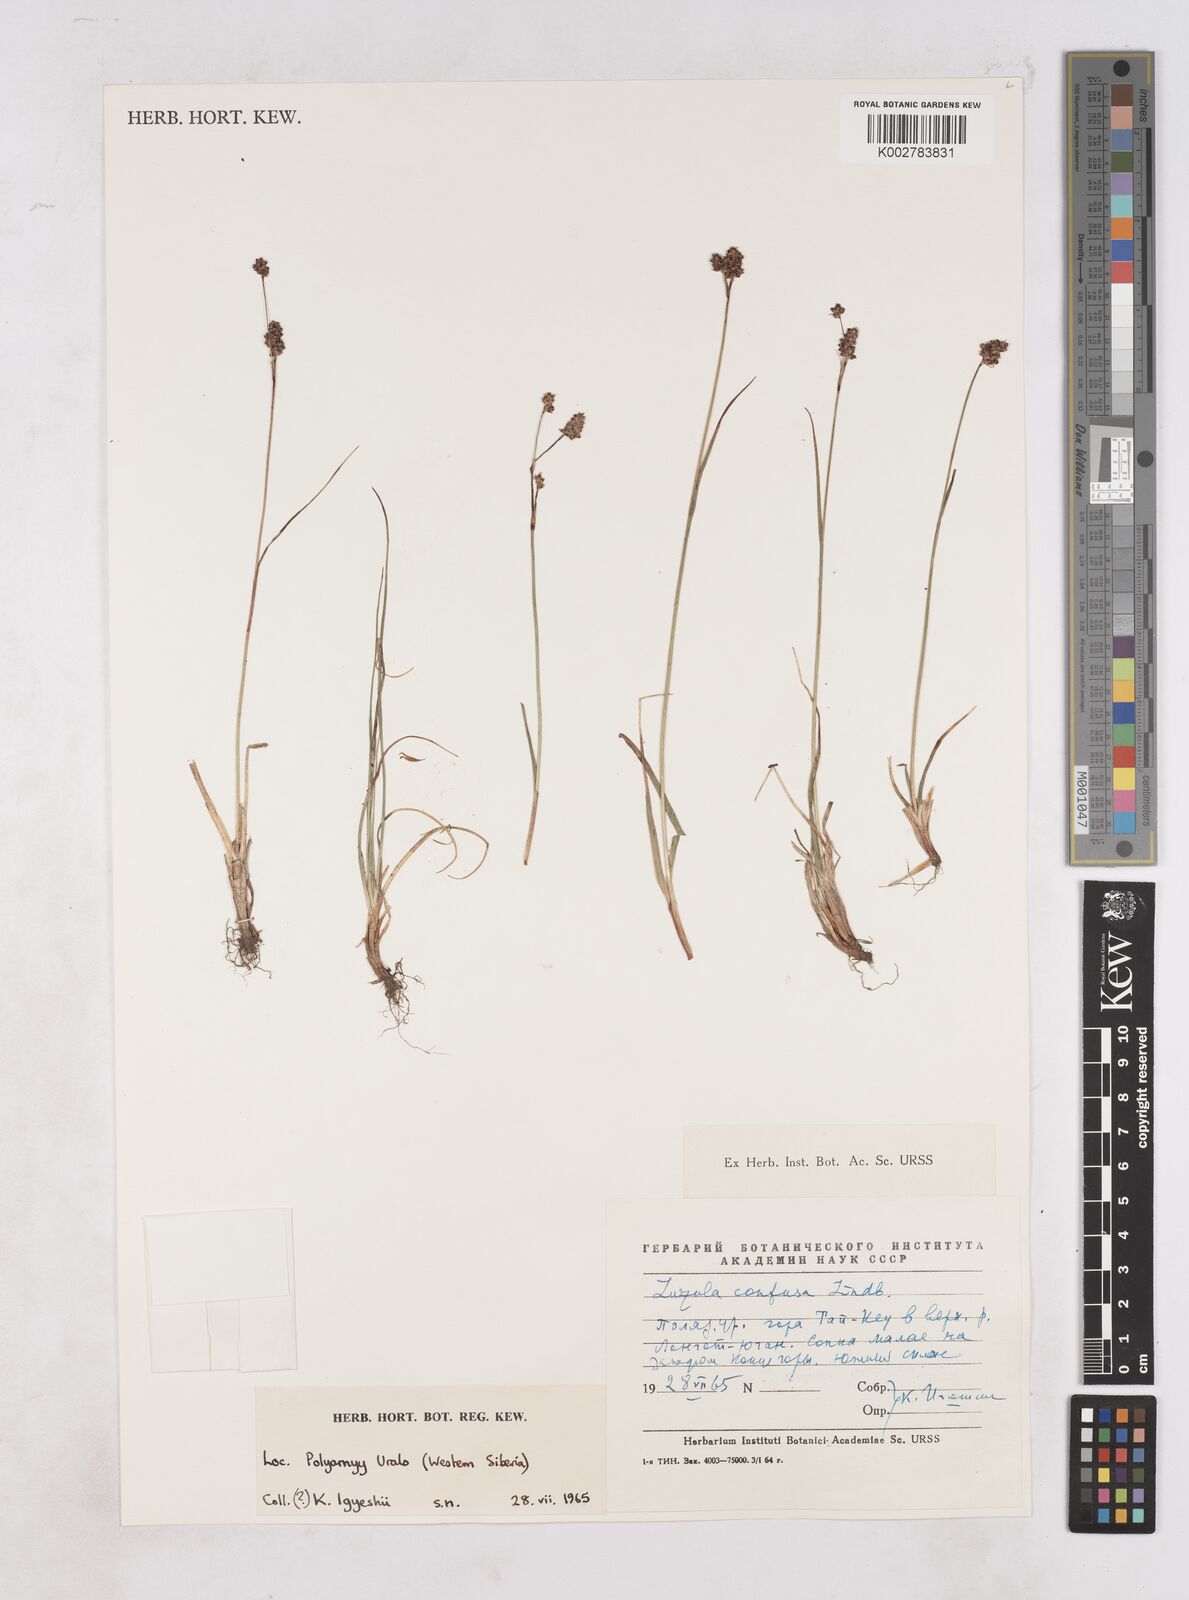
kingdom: Plantae
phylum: Tracheophyta
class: Liliopsida
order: Poales
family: Juncaceae
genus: Luzula
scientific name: Luzula confusa
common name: Northern wood rush
